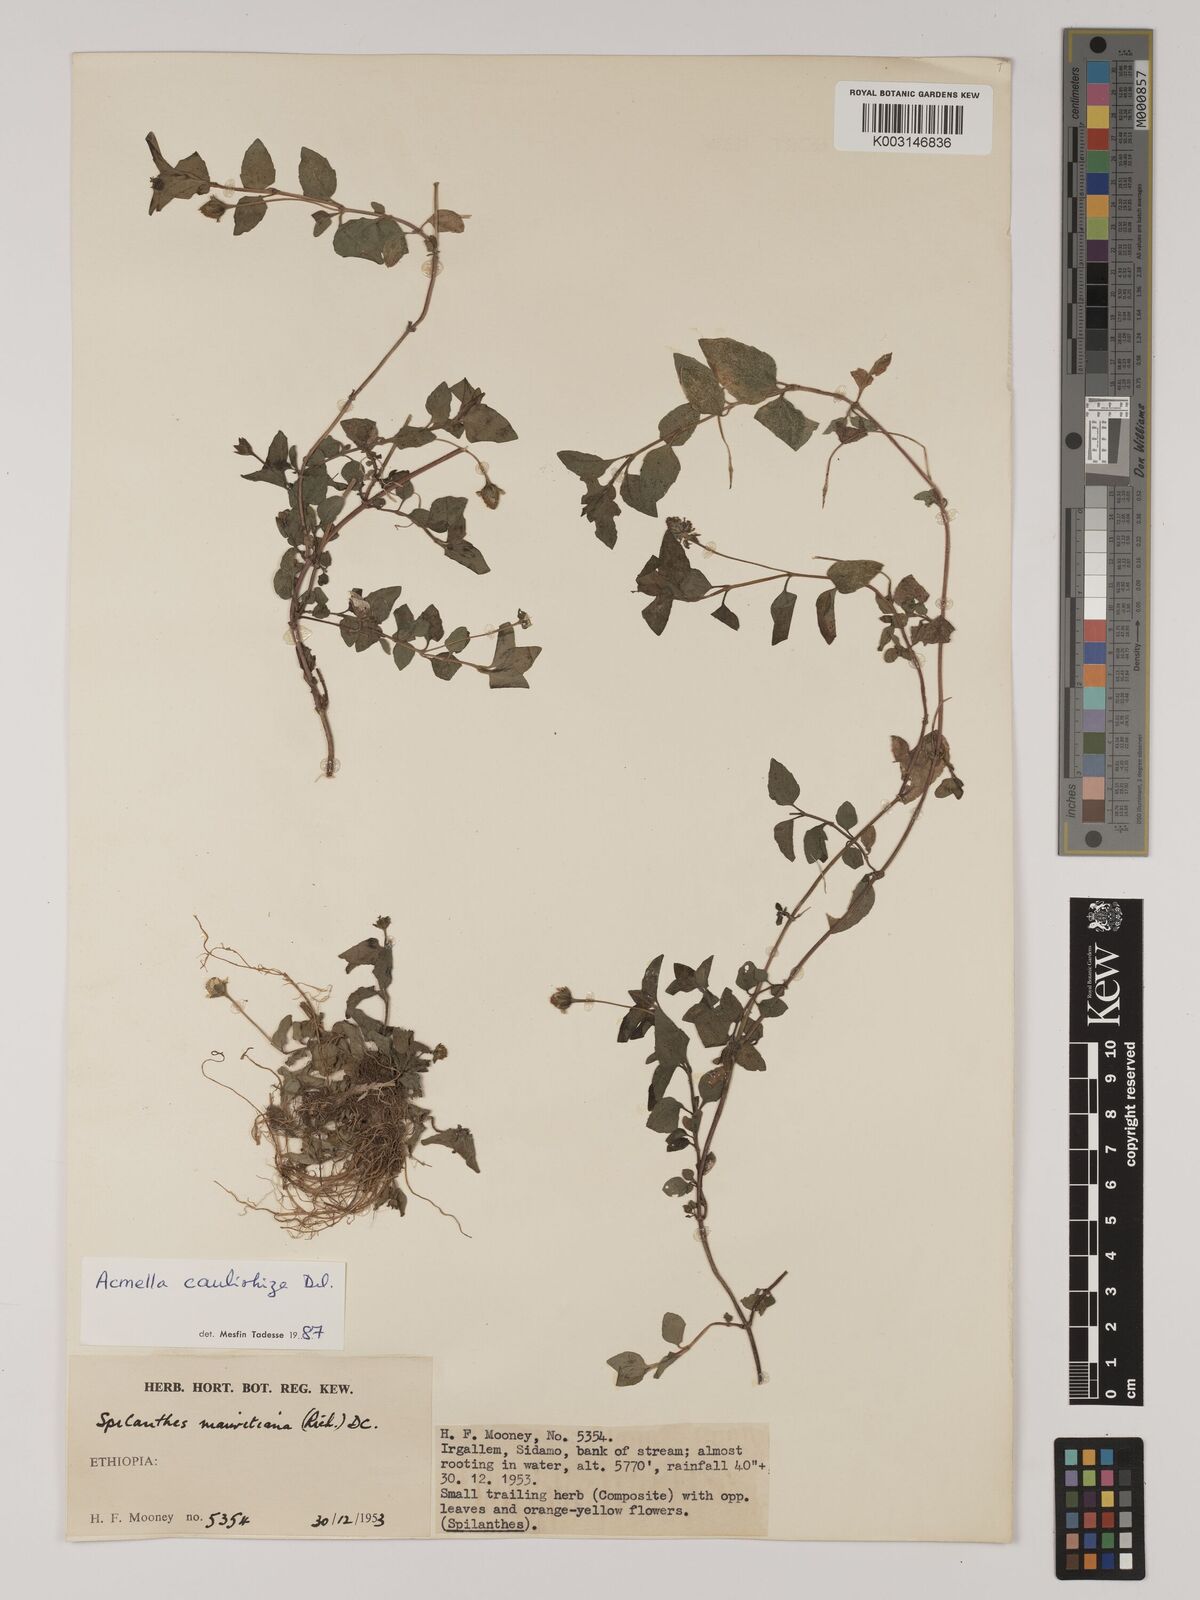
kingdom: Plantae
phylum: Tracheophyta
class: Magnoliopsida
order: Asterales
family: Asteraceae
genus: Acmella
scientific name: Acmella caulirhiza
